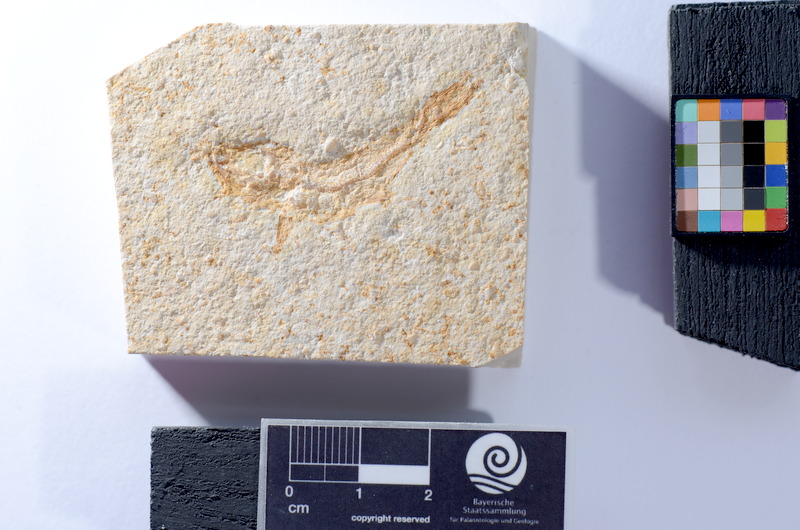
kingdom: Animalia
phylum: Chordata
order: Salmoniformes
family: Orthogonikleithridae
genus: Leptolepides
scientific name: Leptolepides
